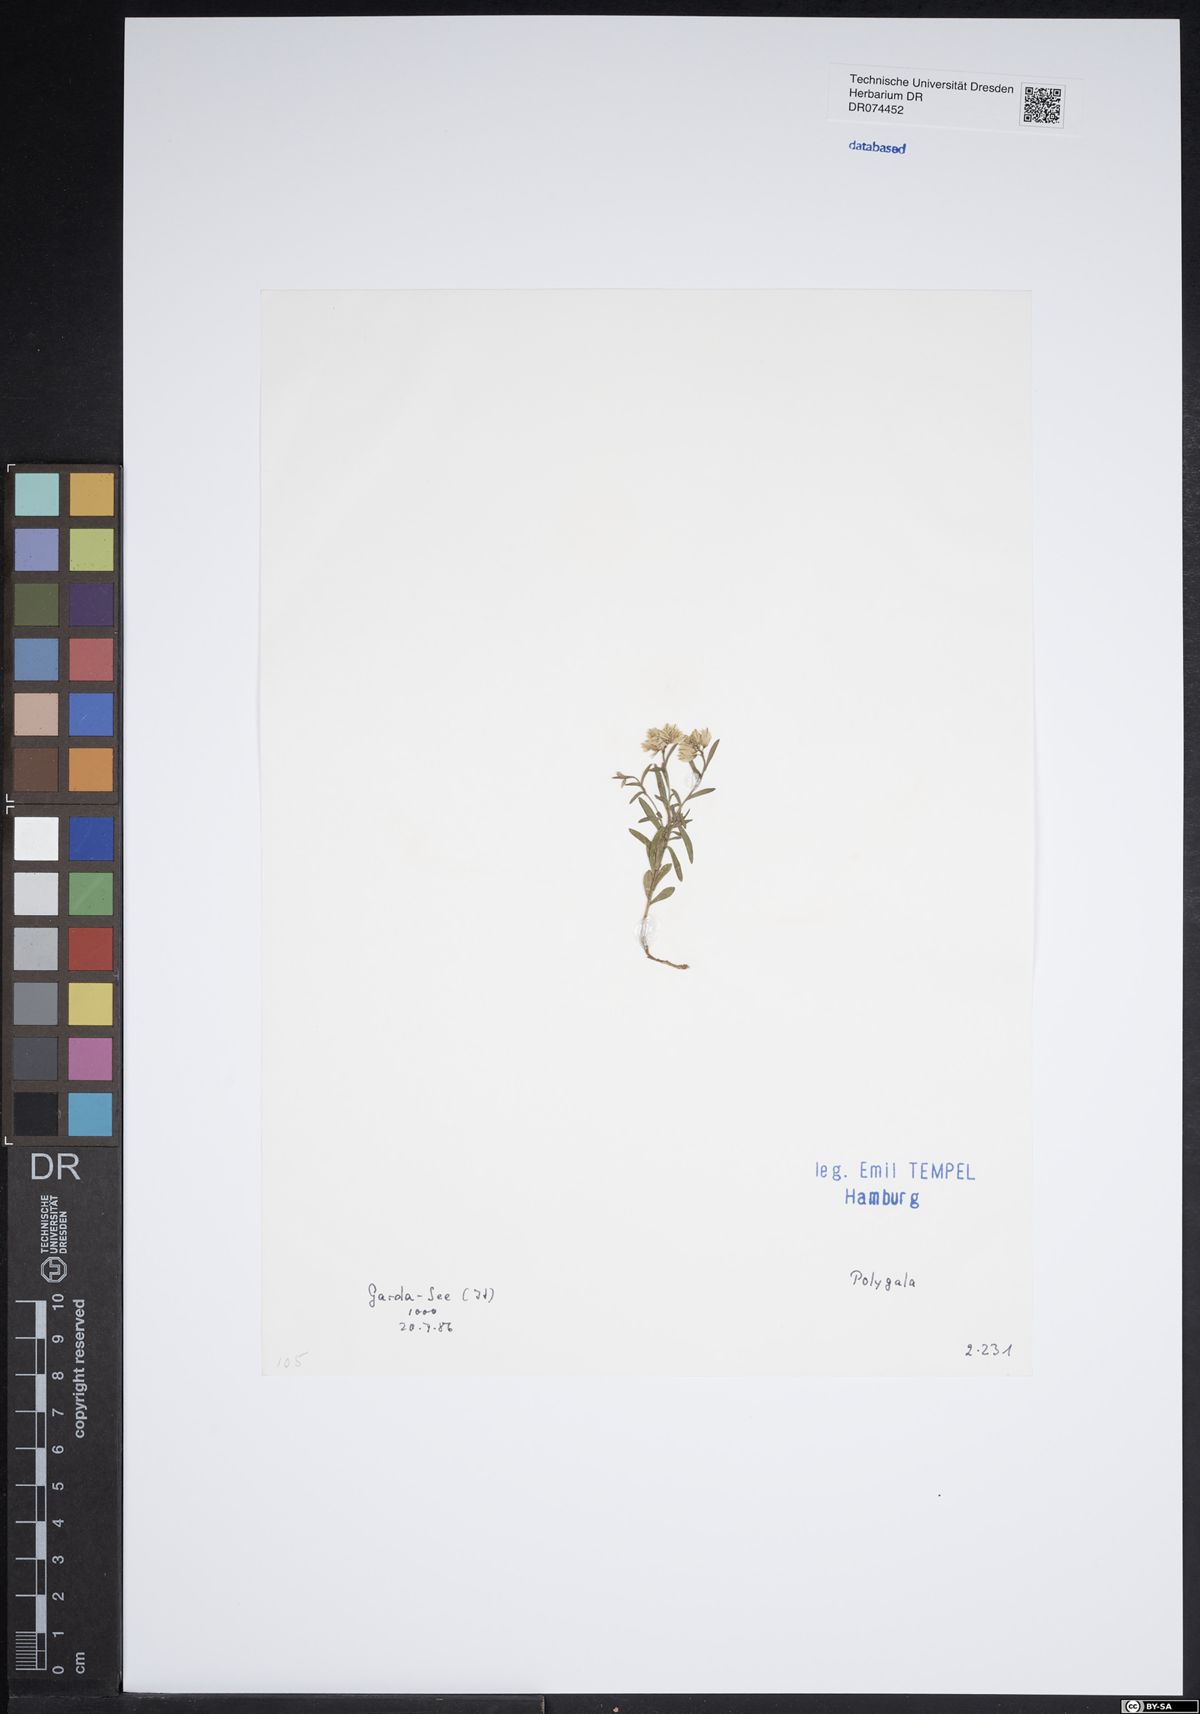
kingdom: Plantae
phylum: Tracheophyta
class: Magnoliopsida
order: Fabales
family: Polygalaceae
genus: Polygala
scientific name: Polygala
